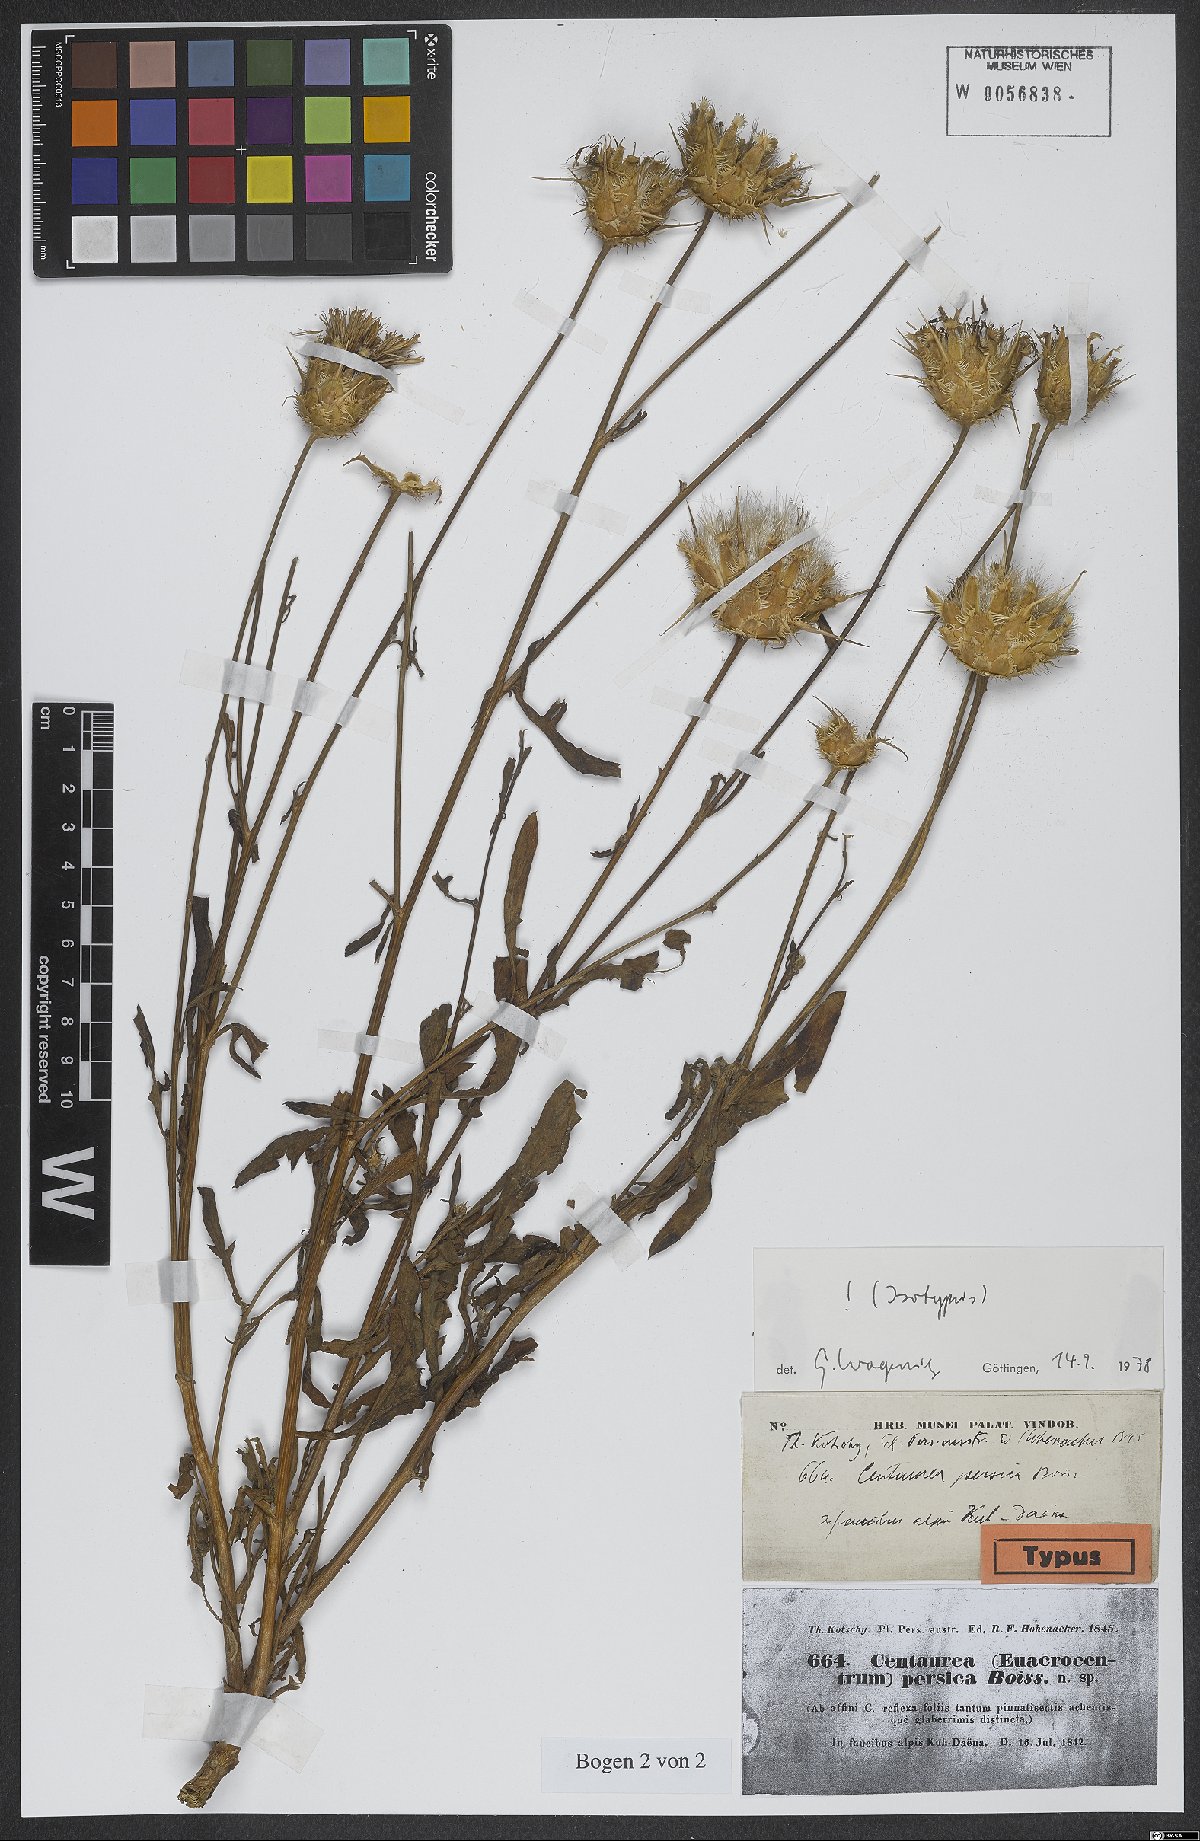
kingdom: Plantae
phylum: Tracheophyta
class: Magnoliopsida
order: Asterales
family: Asteraceae
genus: Centaurea
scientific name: Centaurea persica
